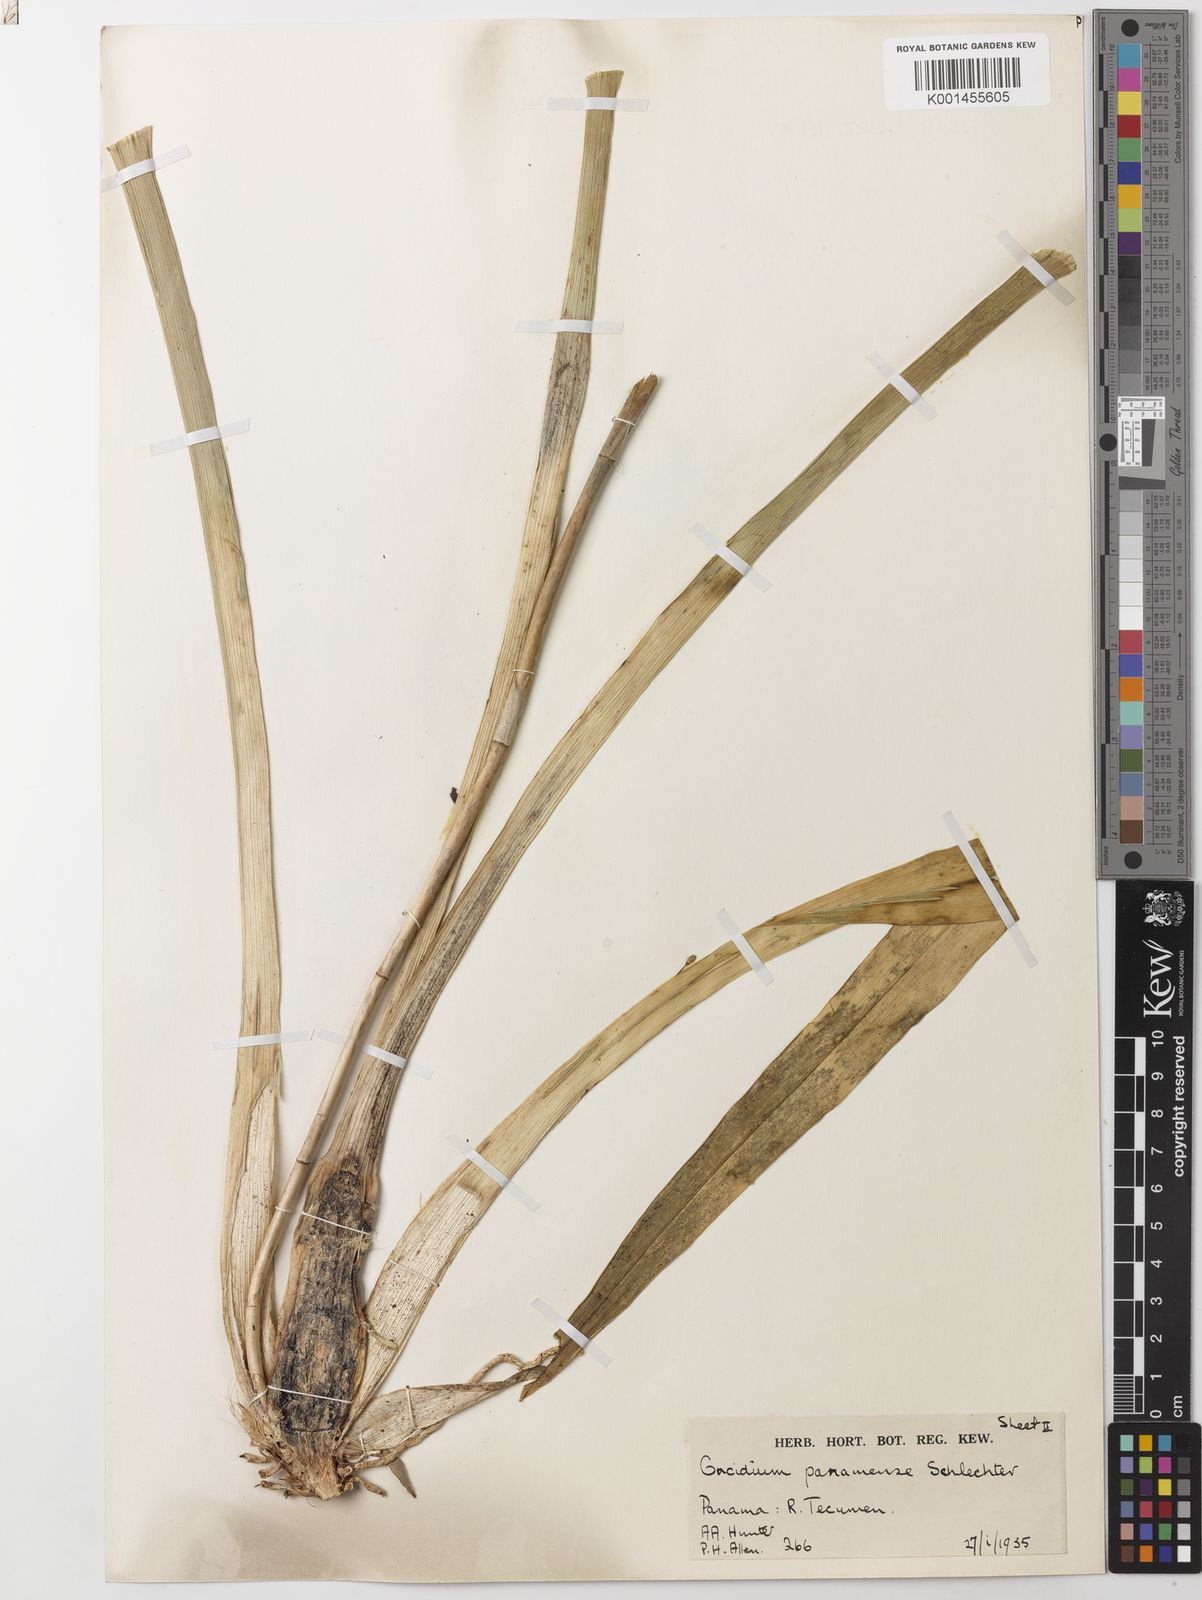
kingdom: Plantae
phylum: Tracheophyta
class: Liliopsida
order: Asparagales
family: Orchidaceae
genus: Oncidium
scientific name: Oncidium panamense
